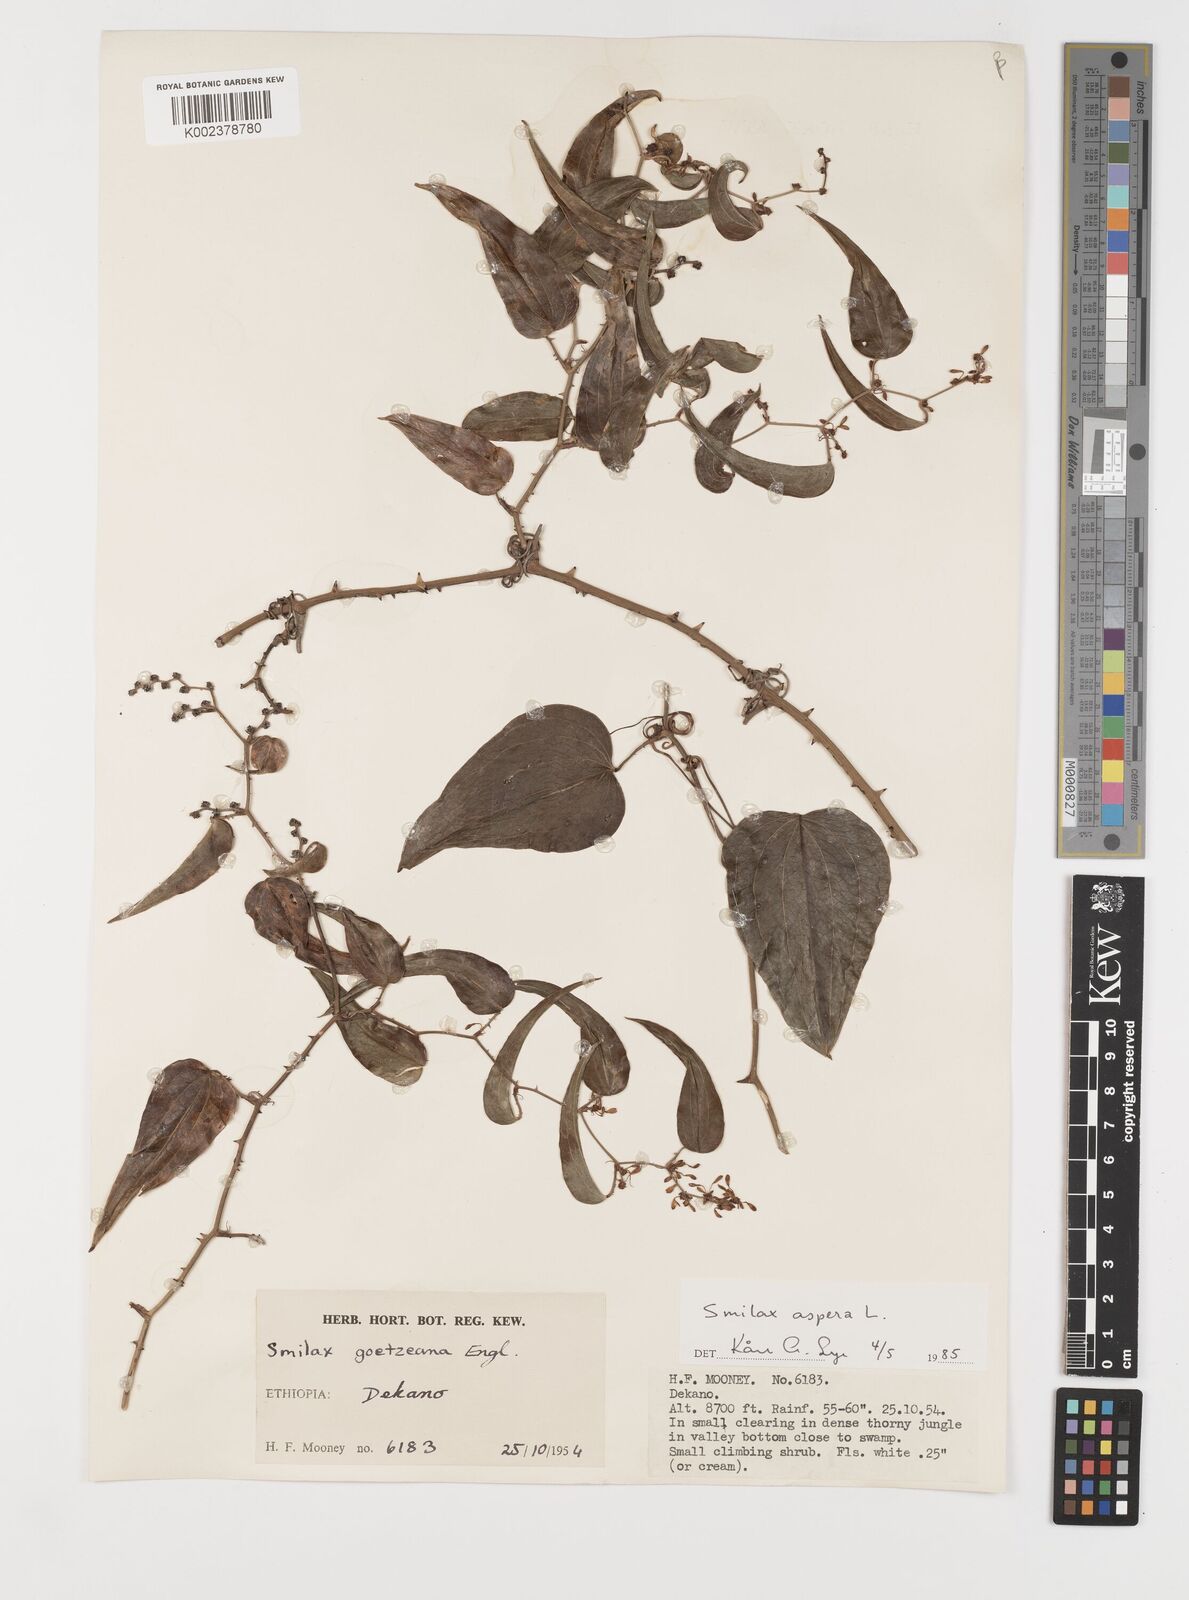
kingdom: Plantae
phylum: Tracheophyta
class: Liliopsida
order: Liliales
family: Smilacaceae
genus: Smilax
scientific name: Smilax aspera
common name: Common smilax
